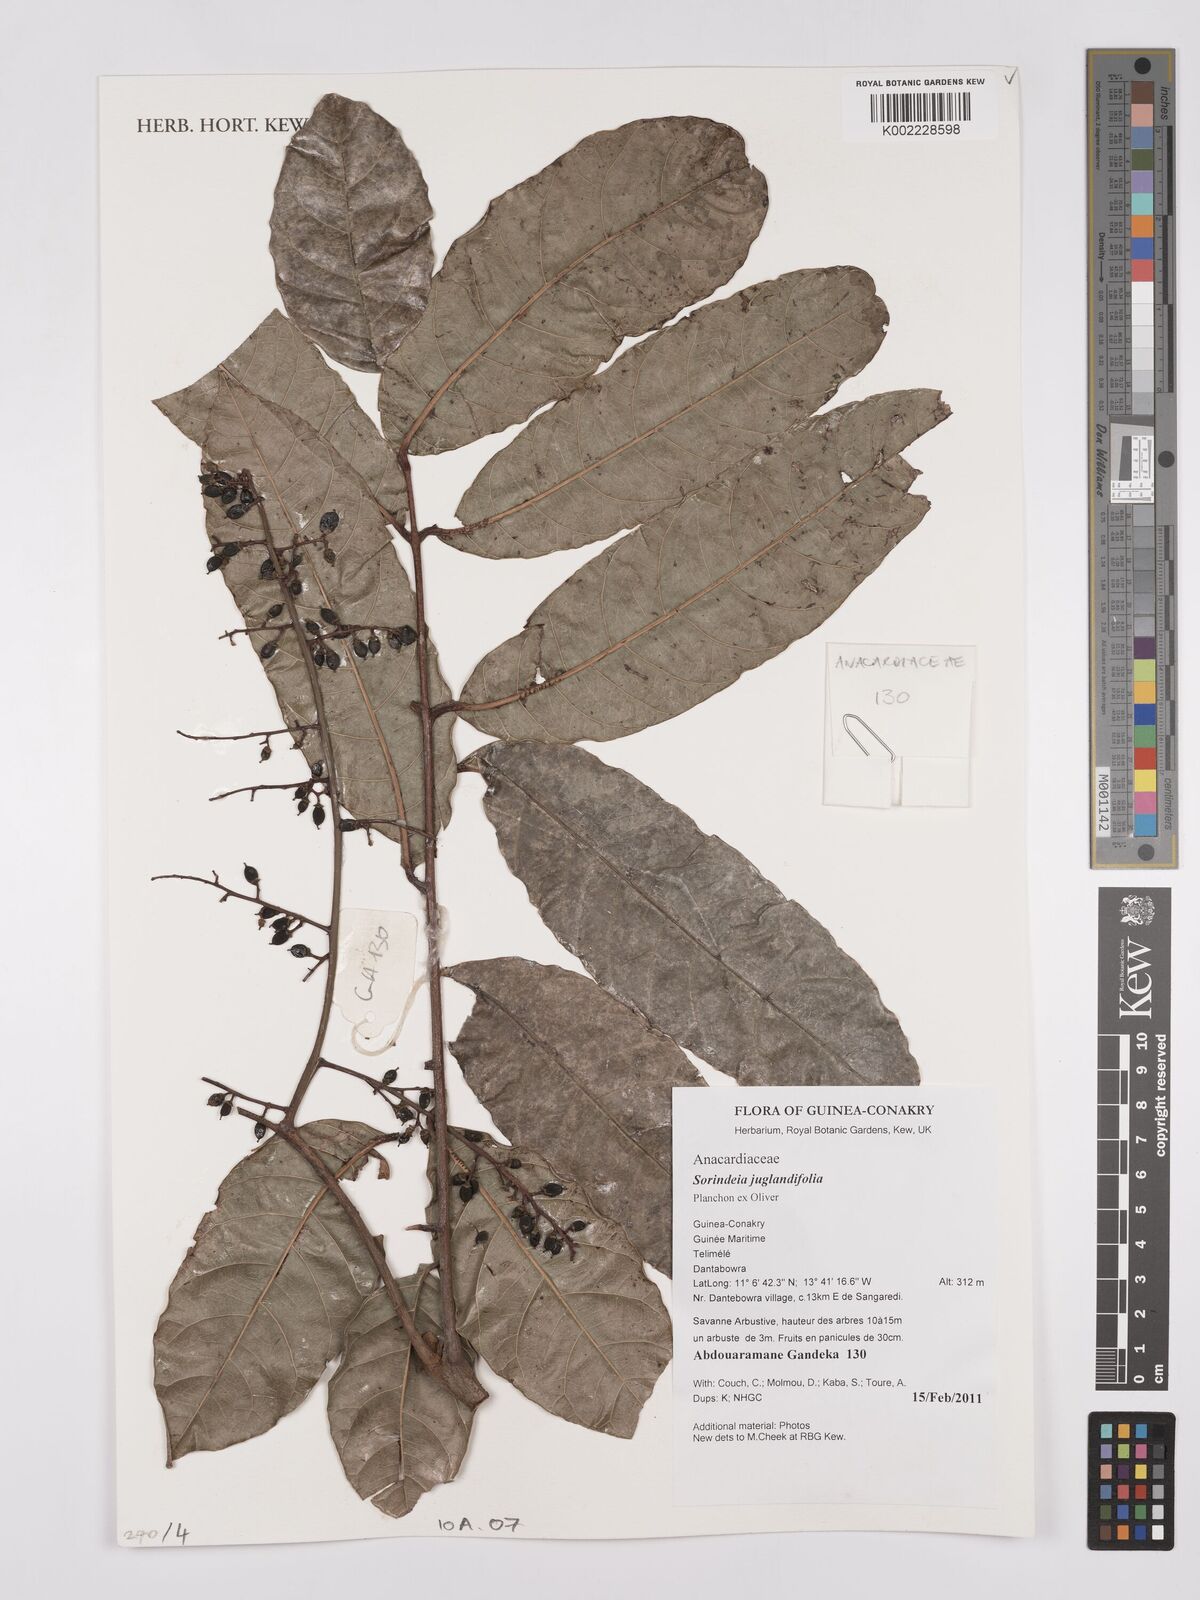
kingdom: Plantae
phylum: Tracheophyta
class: Magnoliopsida
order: Sapindales
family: Anacardiaceae
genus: Sorindeia
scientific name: Sorindeia juglandifolia
